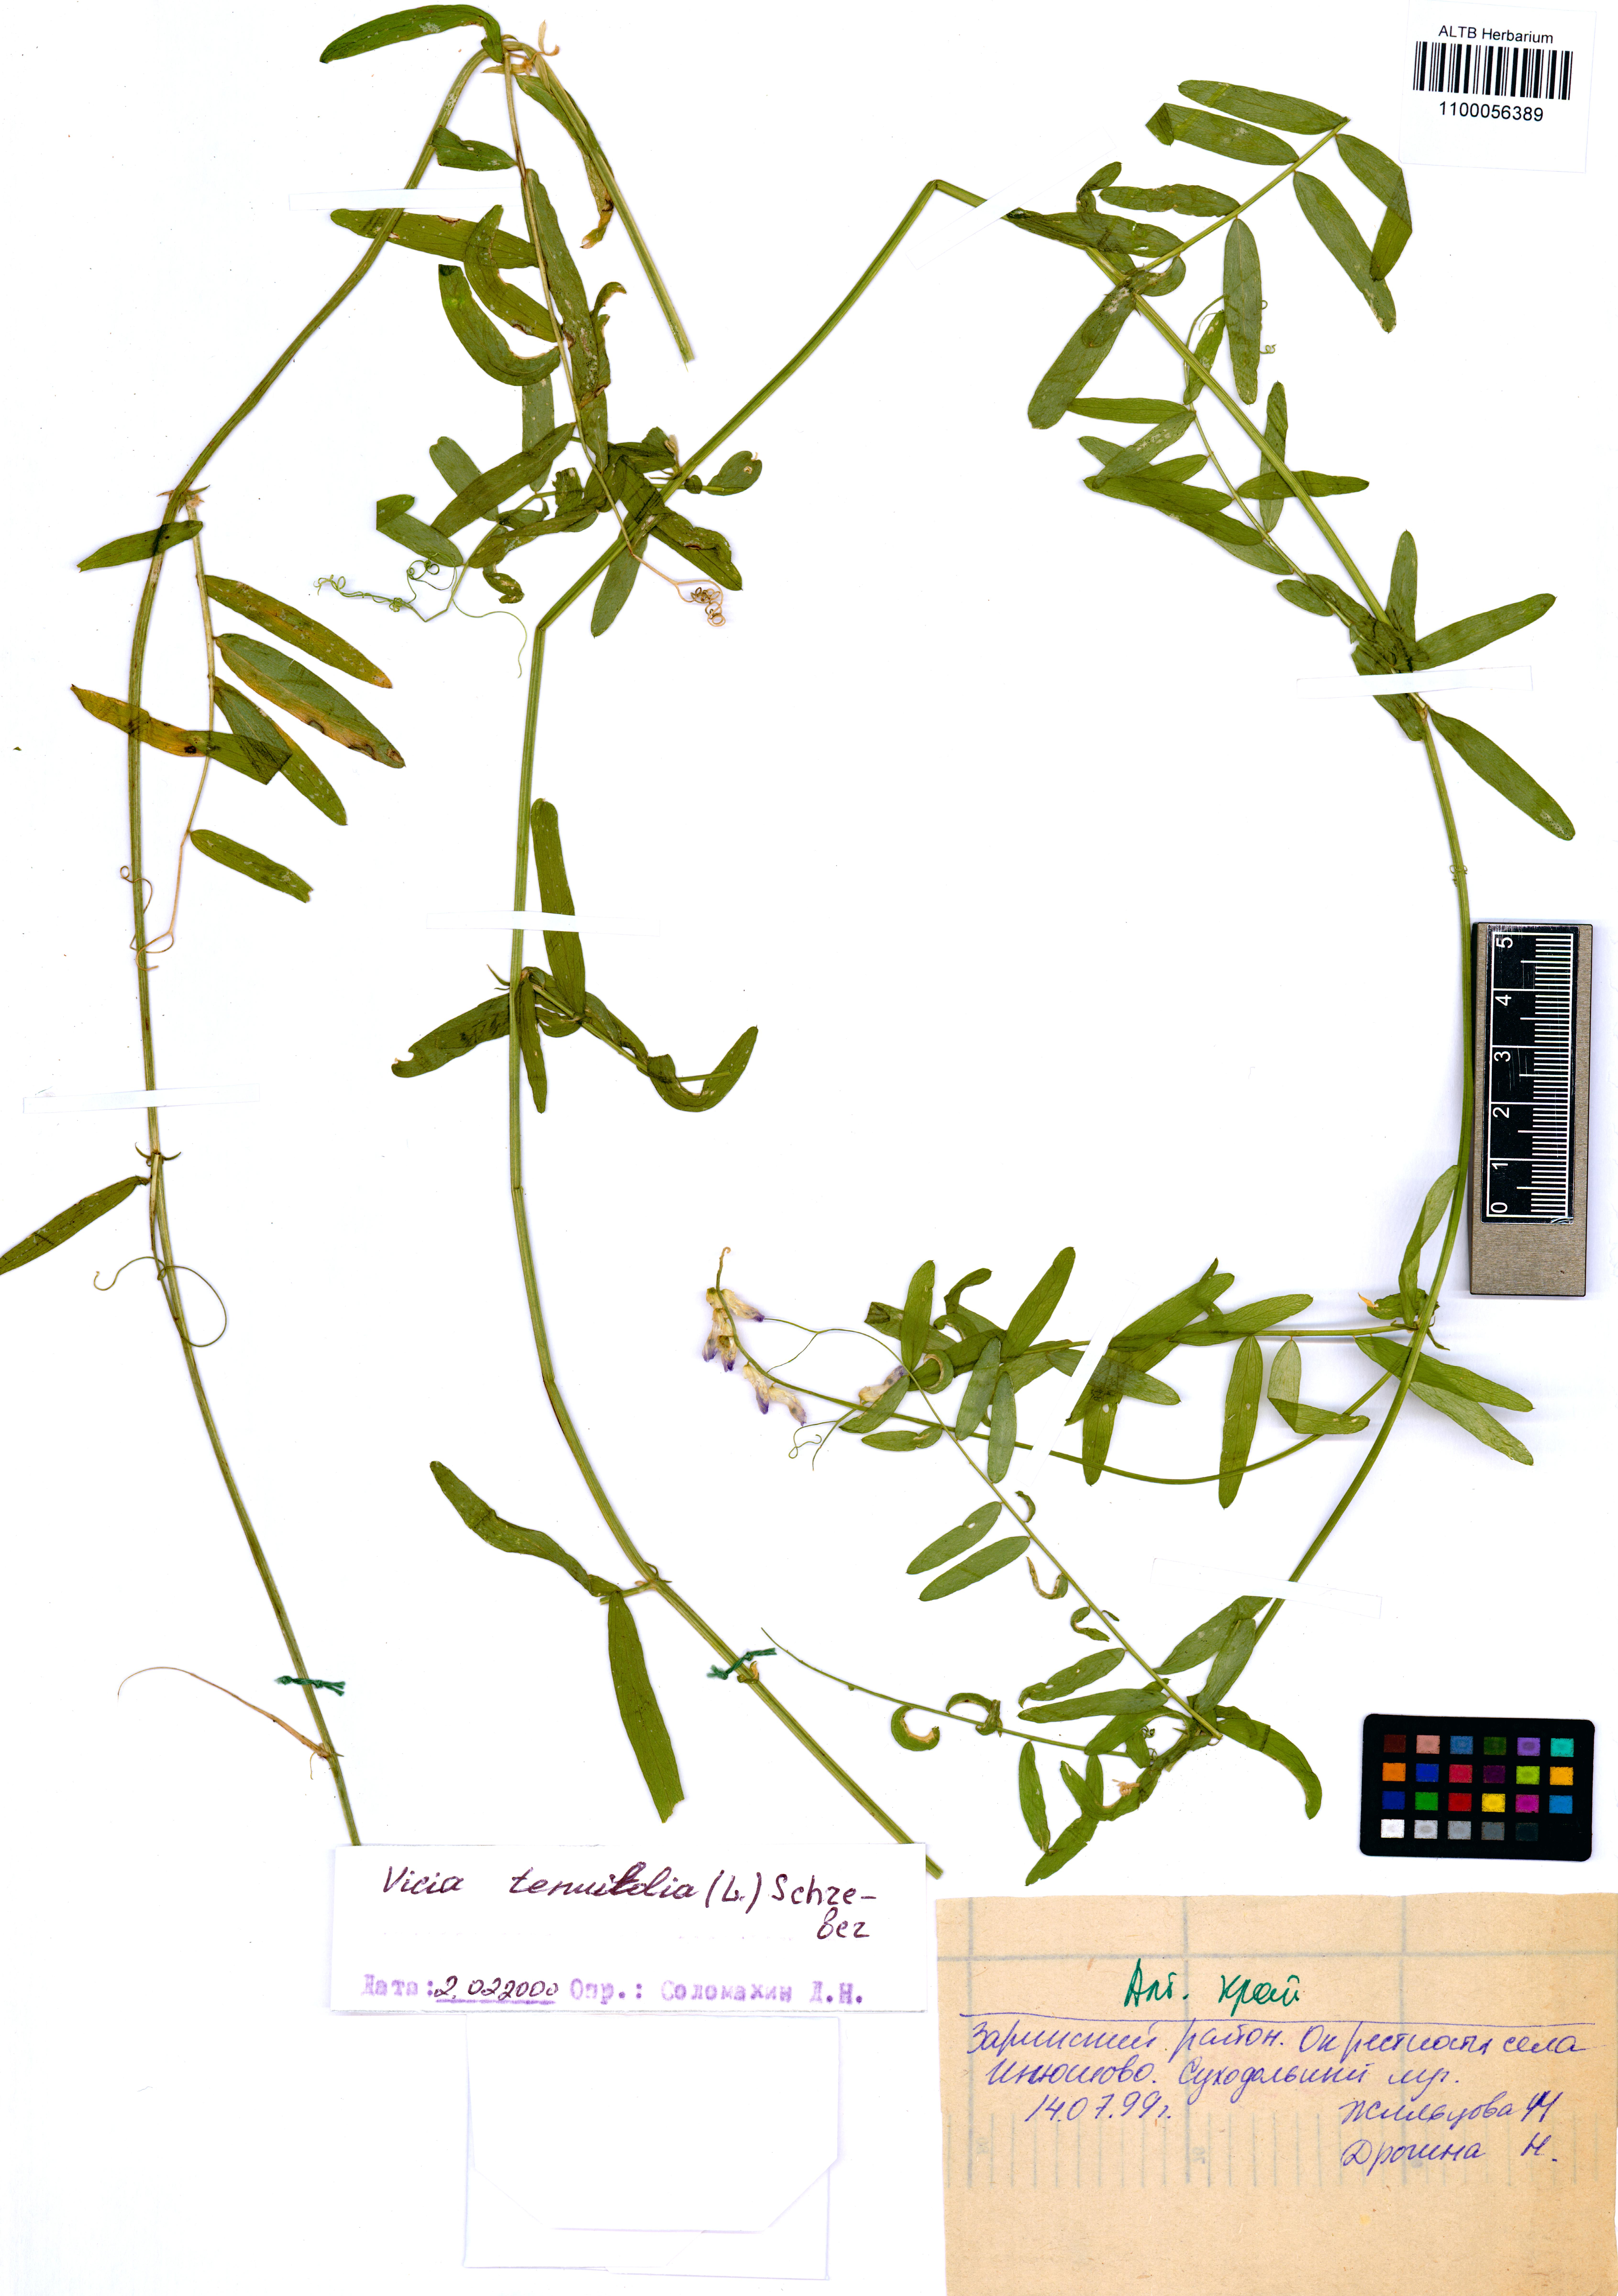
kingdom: Plantae
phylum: Tracheophyta
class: Magnoliopsida
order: Fabales
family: Fabaceae
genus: Vicia
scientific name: Vicia tenuifolia
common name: Fine-leaved vetch
